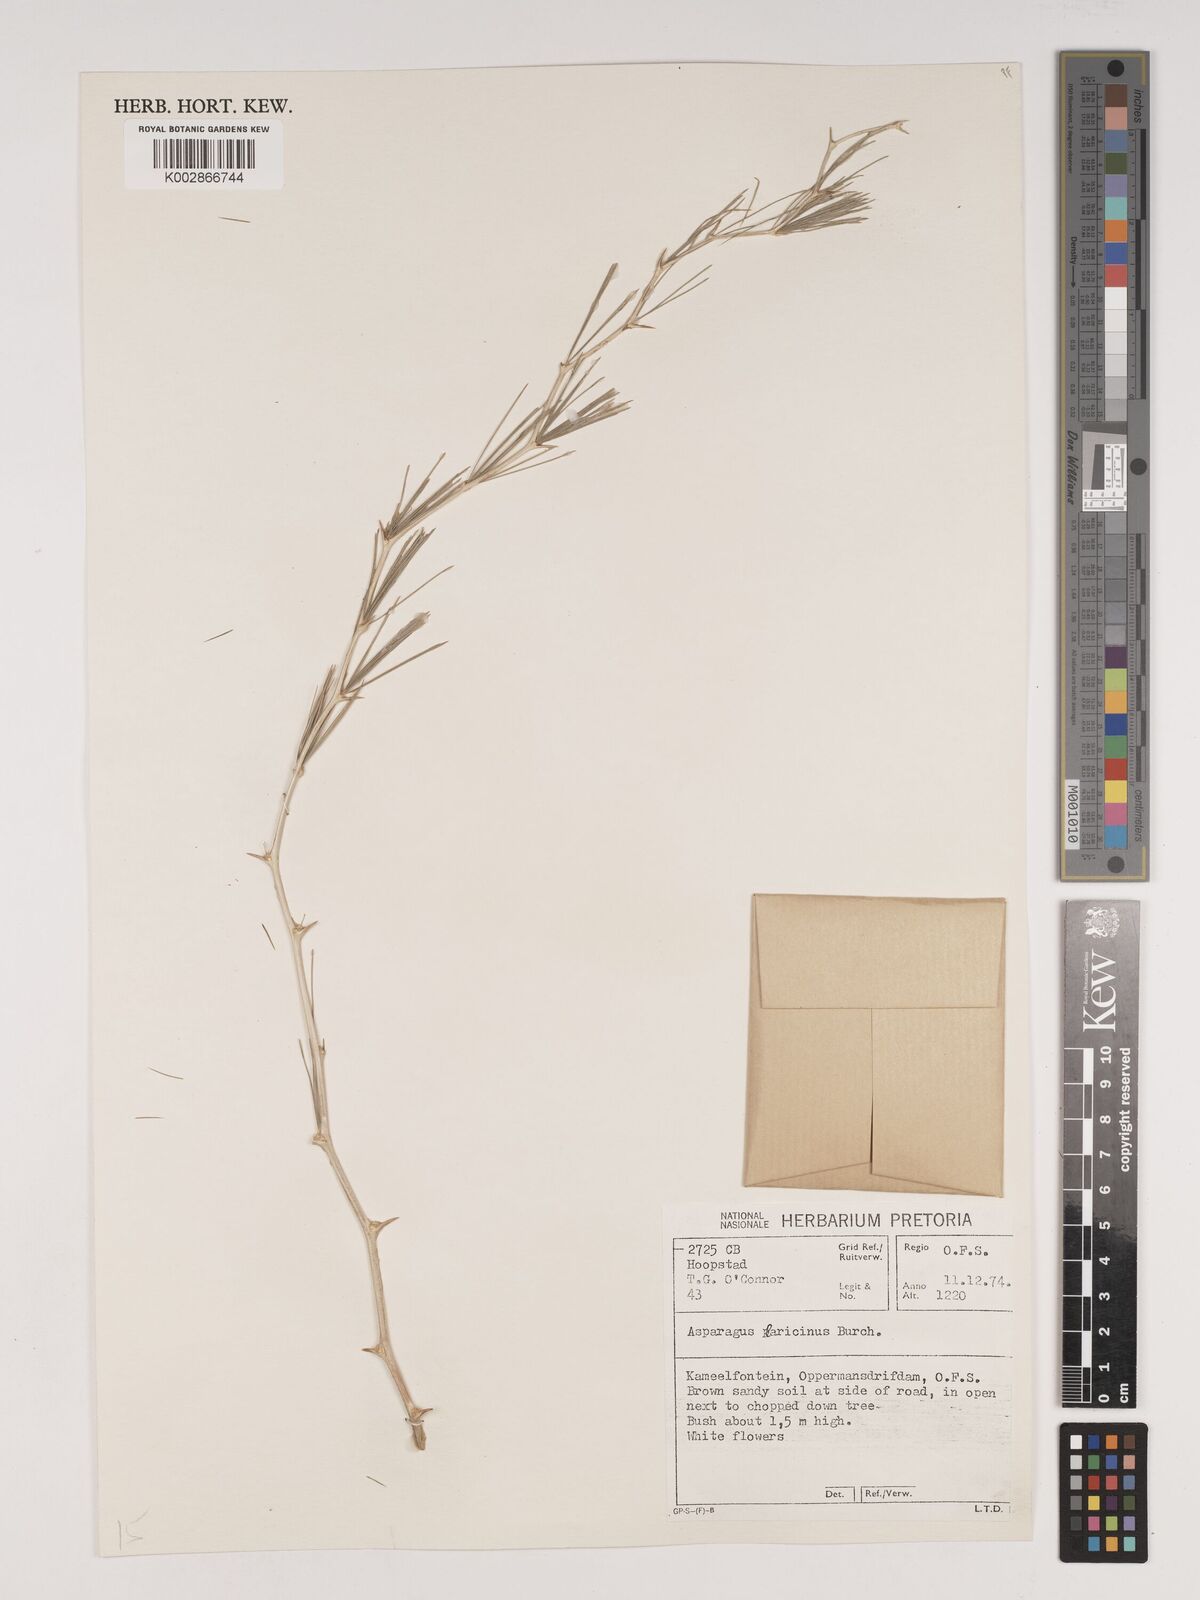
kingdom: Plantae
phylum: Tracheophyta
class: Liliopsida
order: Asparagales
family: Asparagaceae
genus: Asparagus
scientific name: Asparagus laricinus
